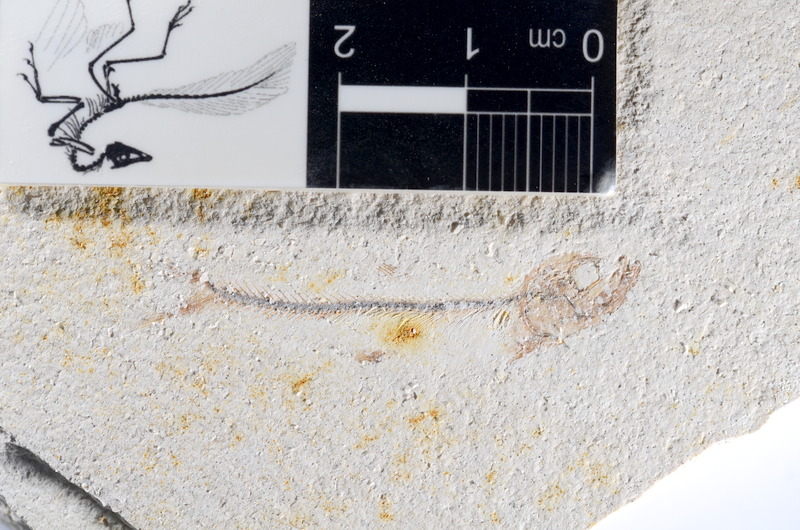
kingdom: Animalia
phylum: Chordata
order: Salmoniformes
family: Orthogonikleithridae
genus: Orthogonikleithrus
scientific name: Orthogonikleithrus hoelli
